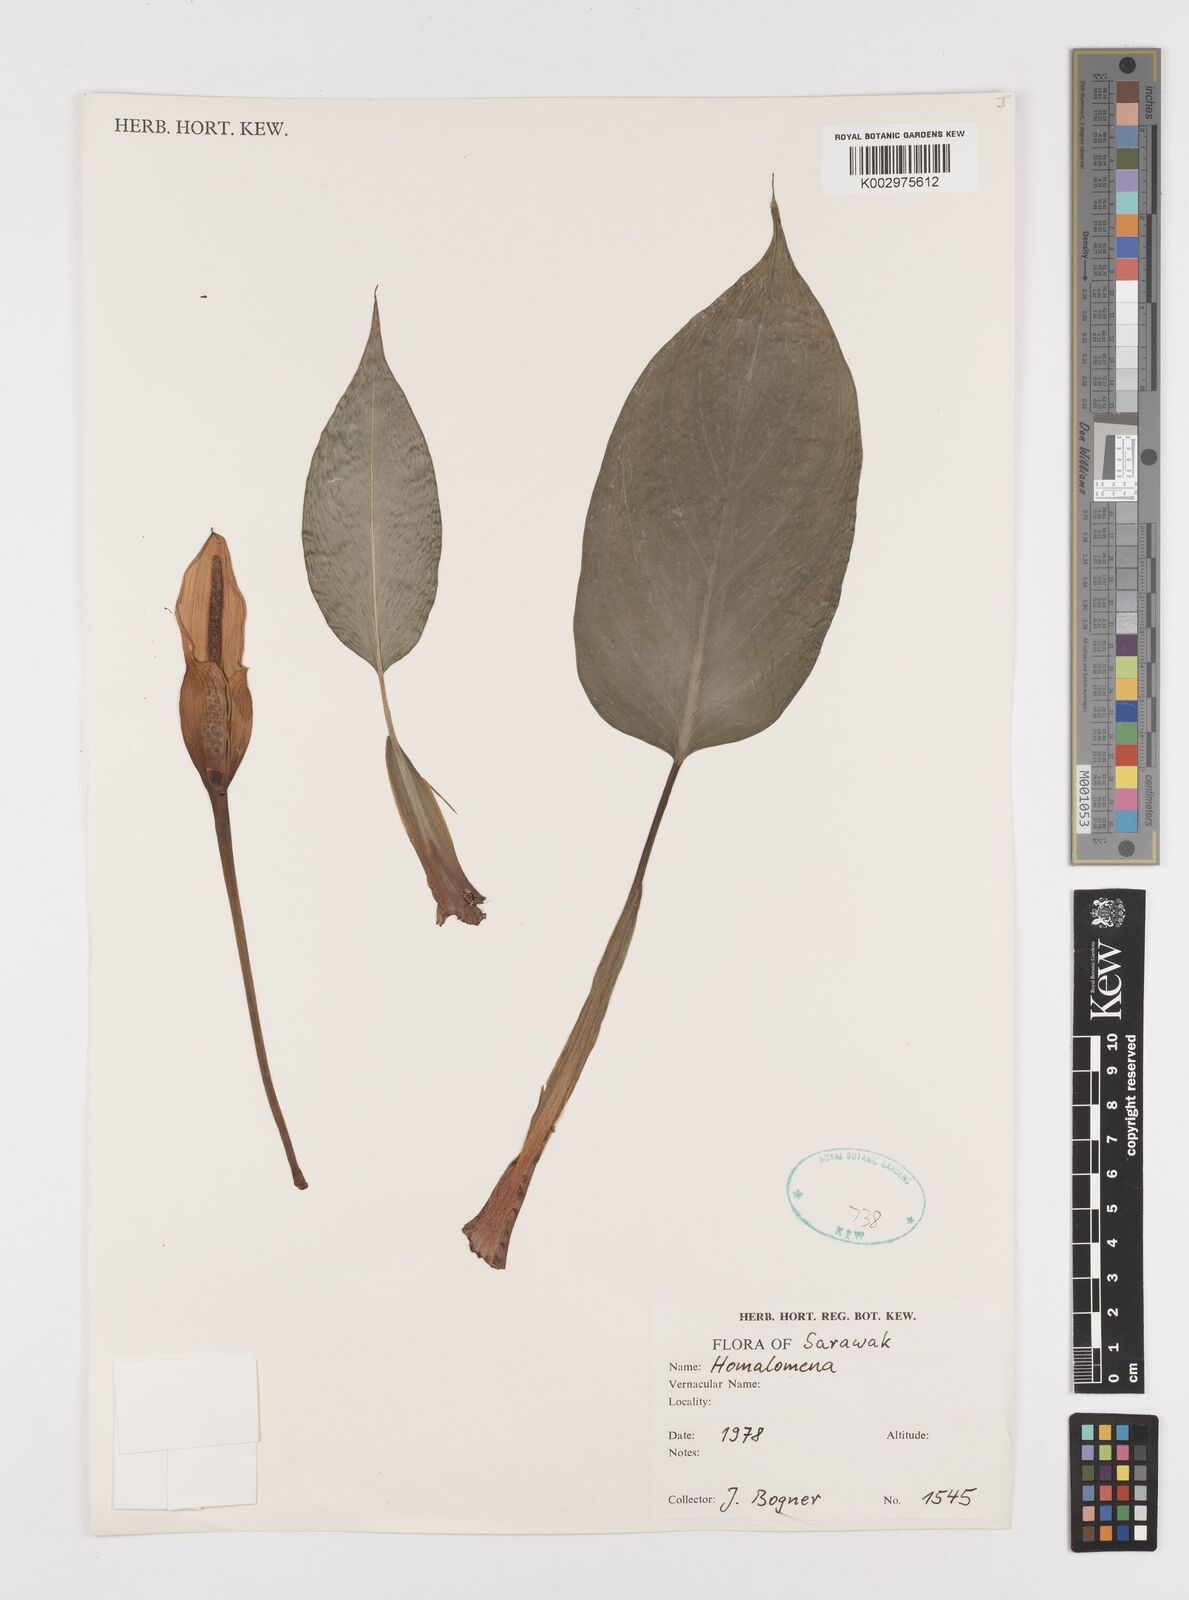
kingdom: Plantae
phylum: Tracheophyta
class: Liliopsida
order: Alismatales
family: Araceae
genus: Homalomena
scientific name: Homalomena
